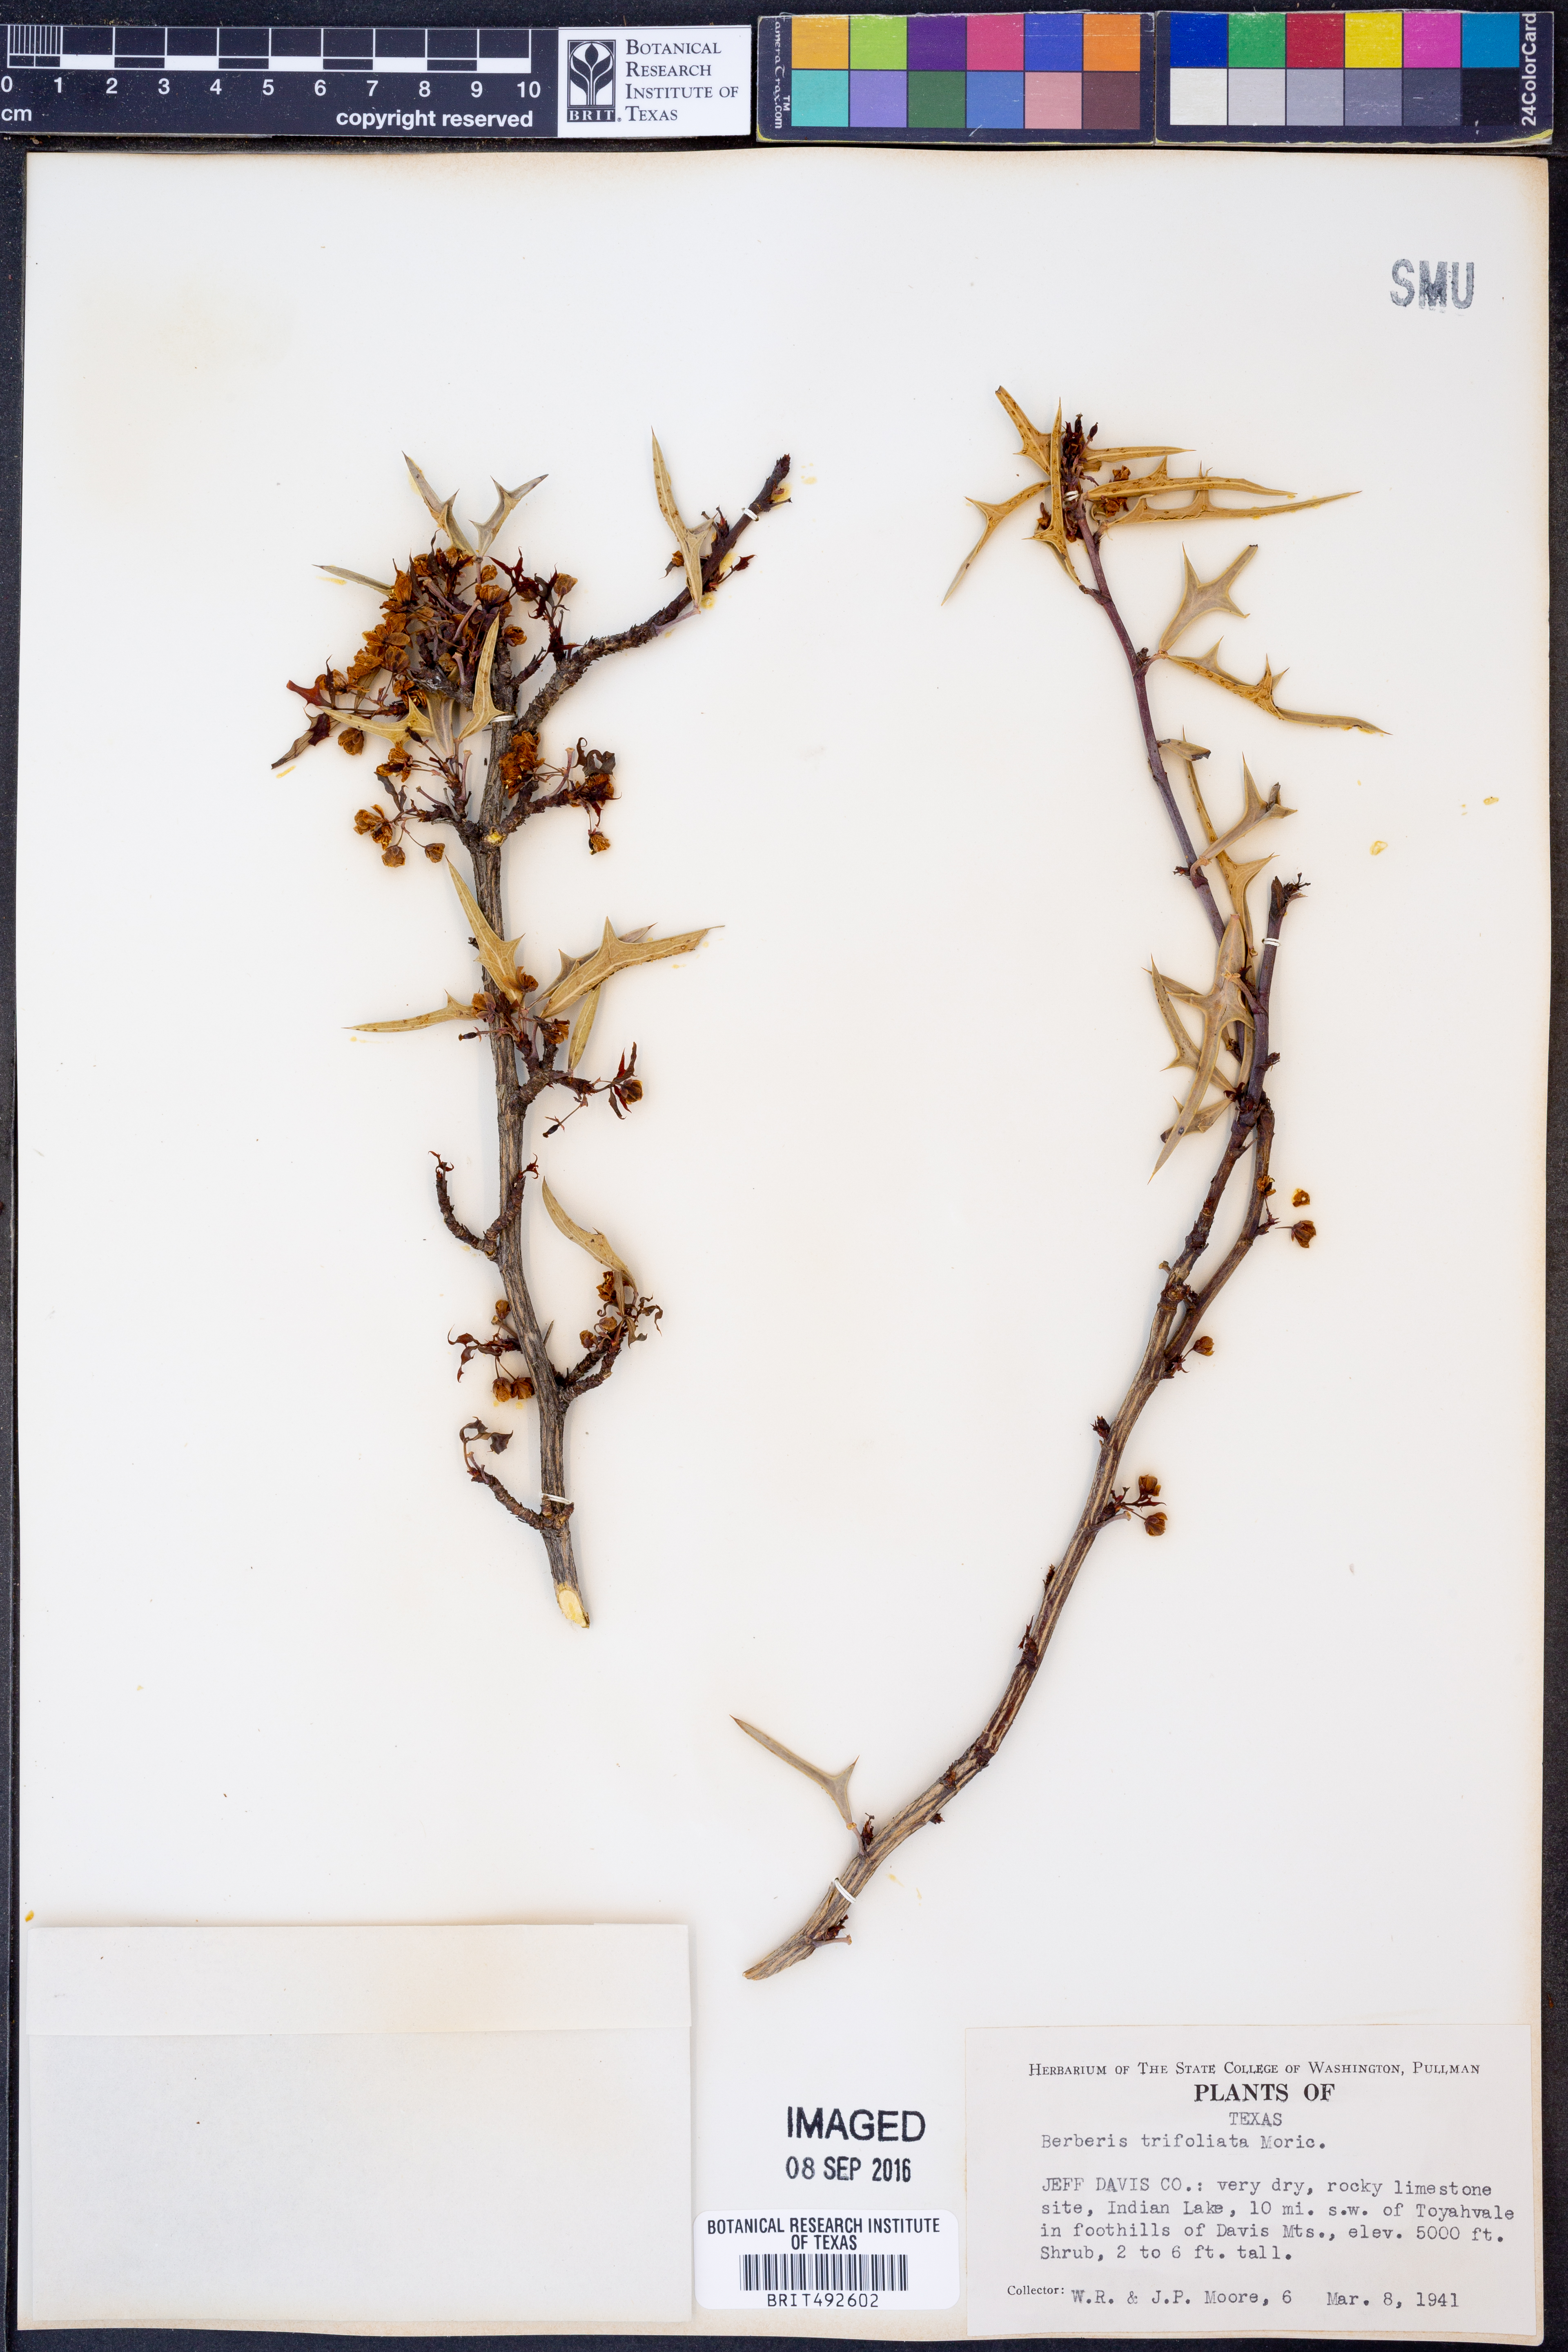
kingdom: Plantae
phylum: Tracheophyta
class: Magnoliopsida
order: Ranunculales
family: Berberidaceae
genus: Alloberberis
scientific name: Alloberberis fremontii
